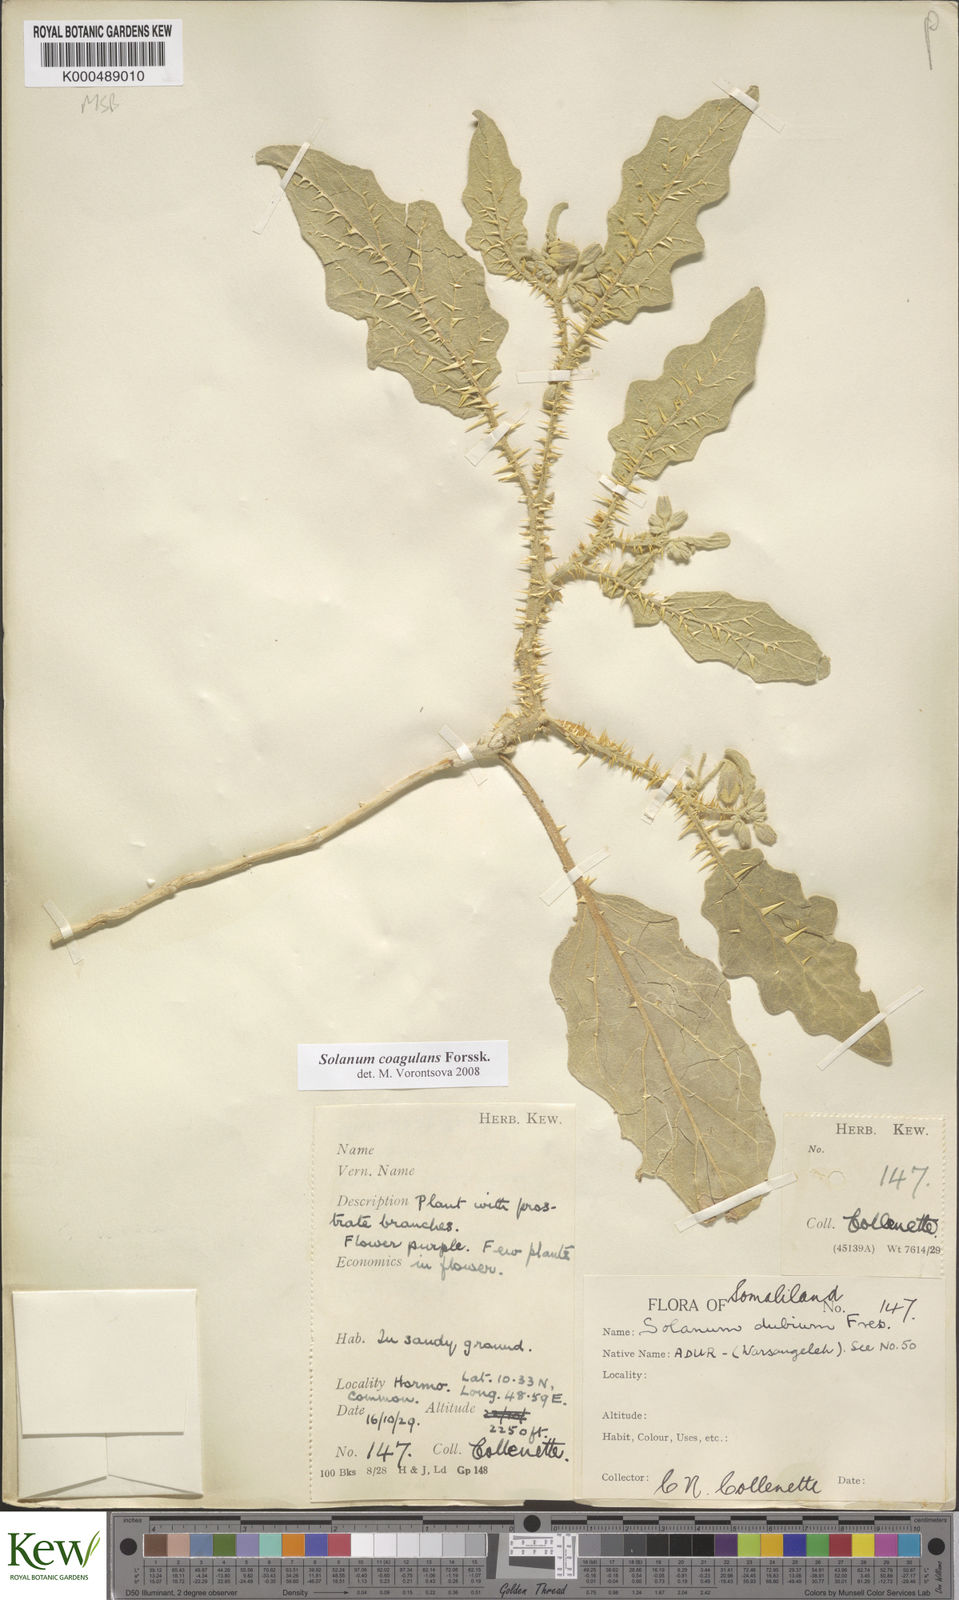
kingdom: Plantae
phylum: Tracheophyta
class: Magnoliopsida
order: Solanales
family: Solanaceae
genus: Solanum
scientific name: Solanum coagulans
